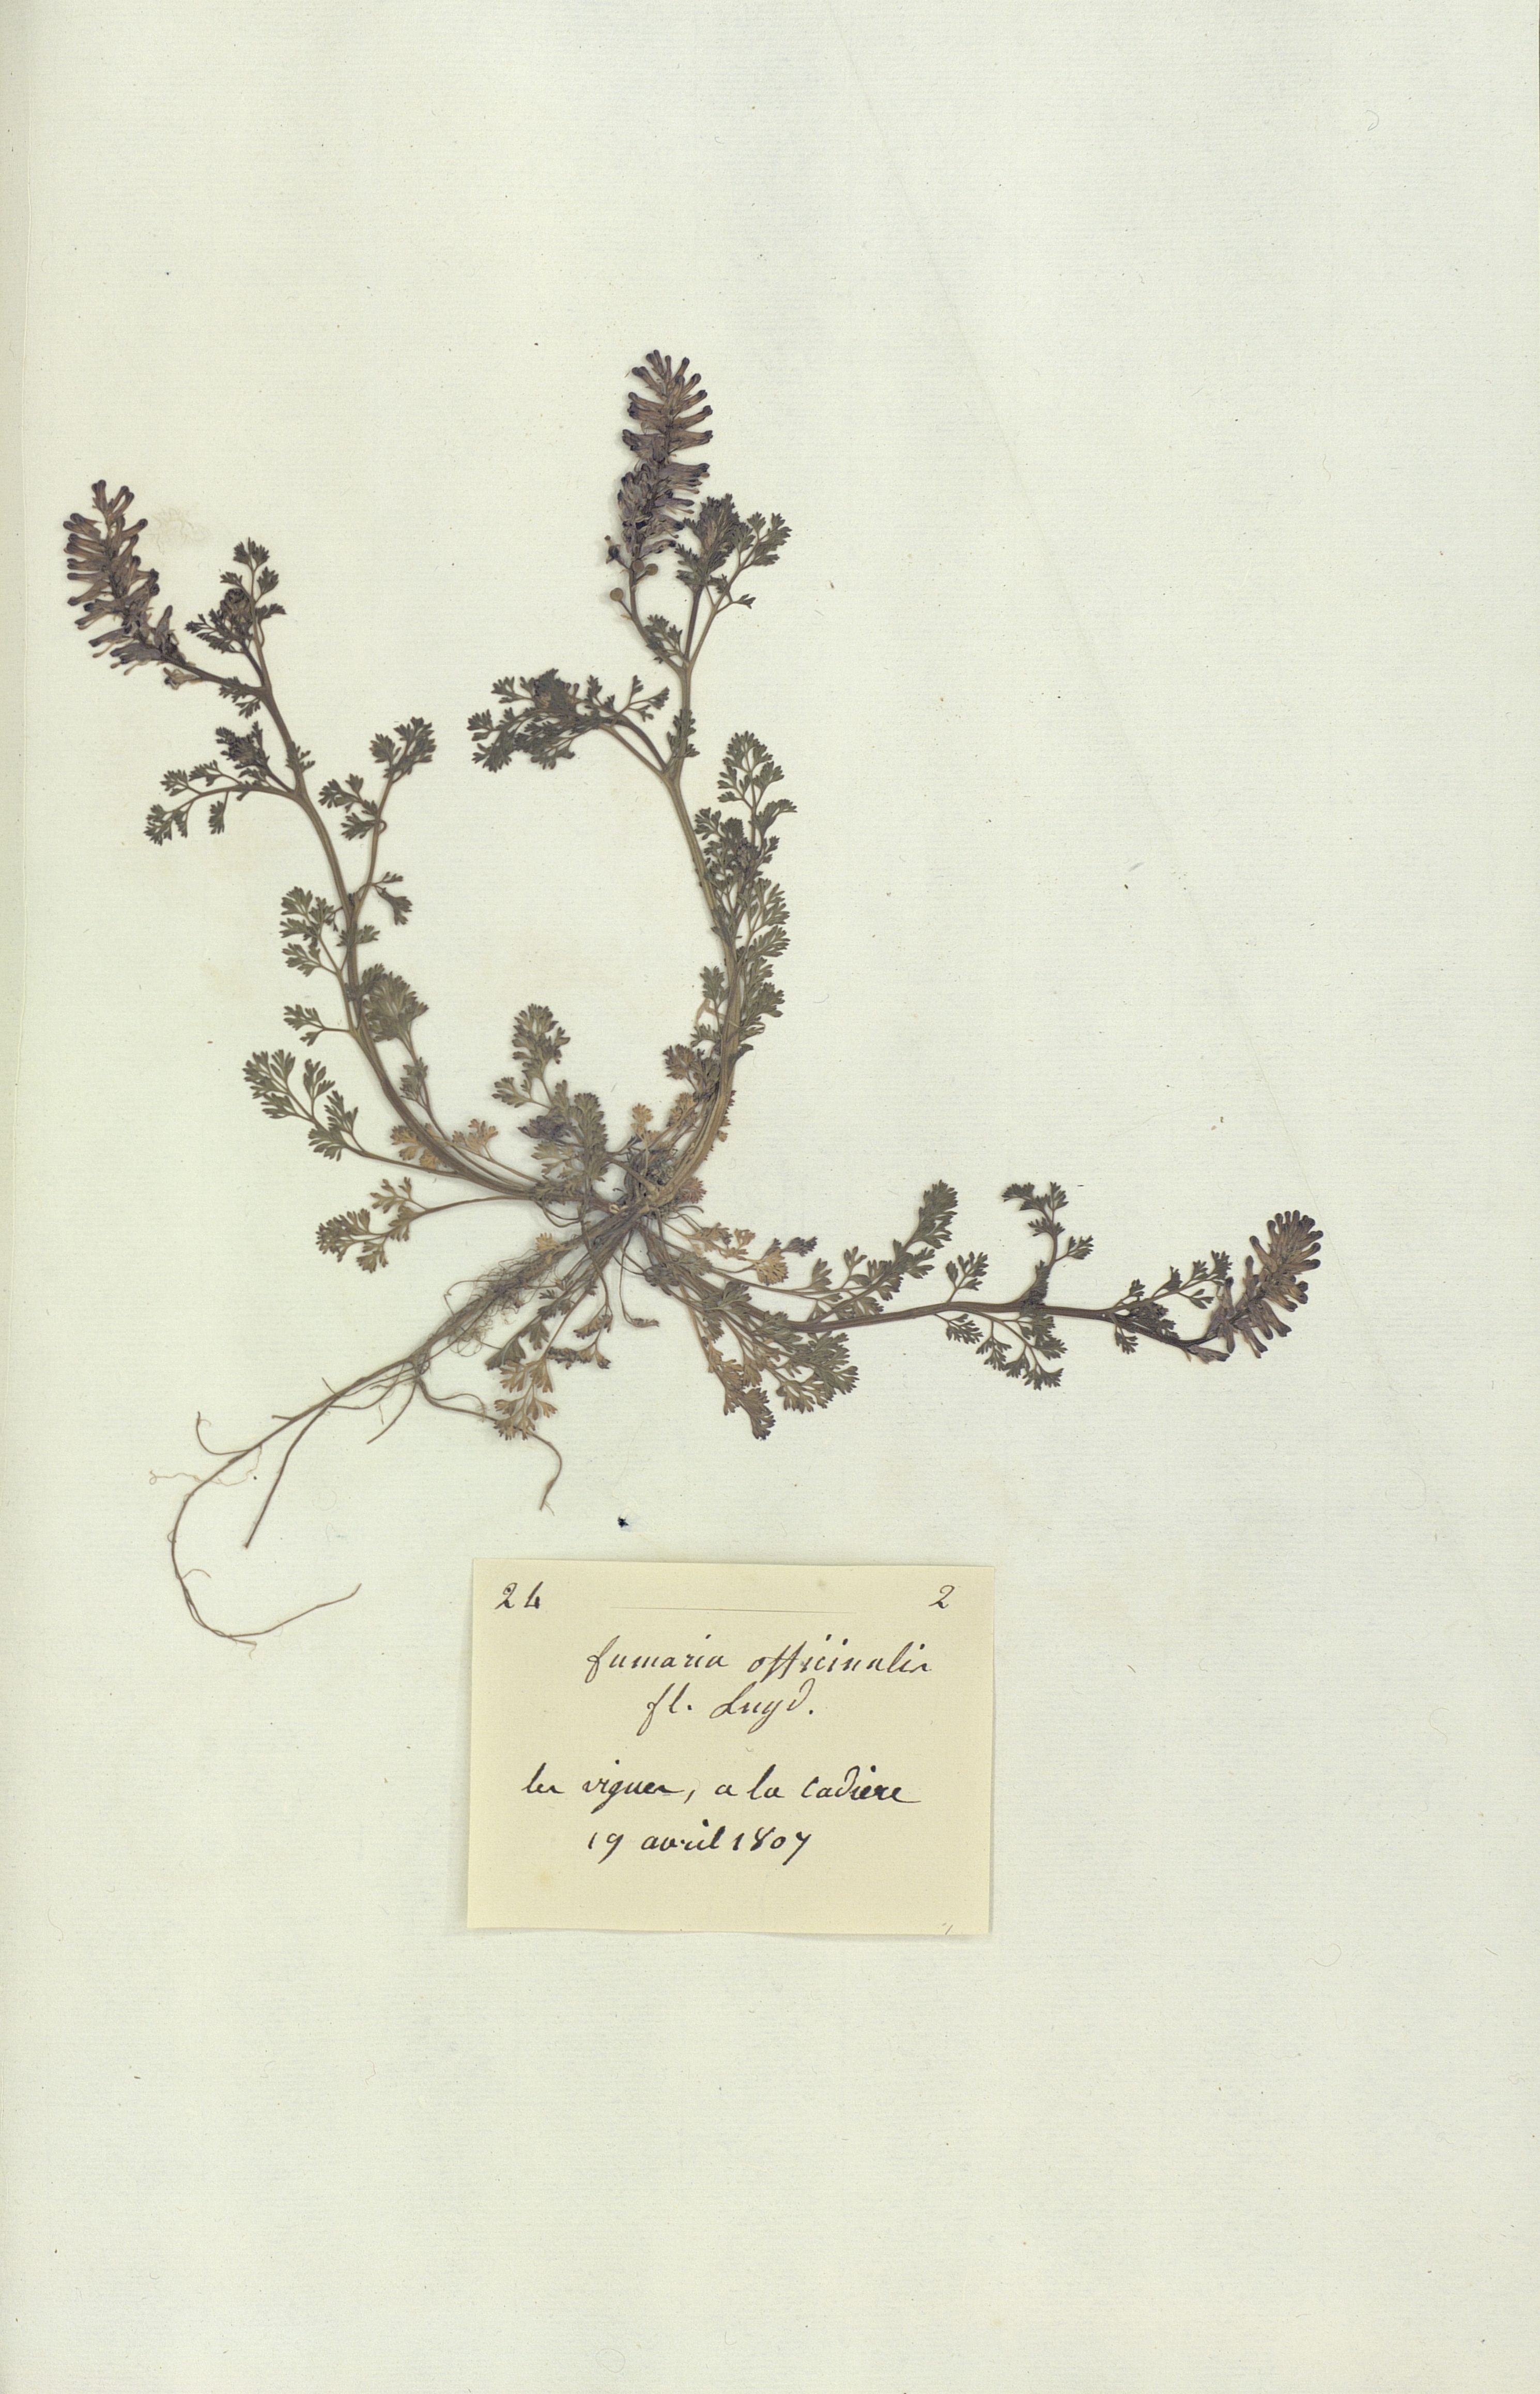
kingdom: Plantae
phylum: Tracheophyta
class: Magnoliopsida
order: Ranunculales
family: Papaveraceae
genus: Fumaria
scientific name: Fumaria officinalis
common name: Common fumitory
